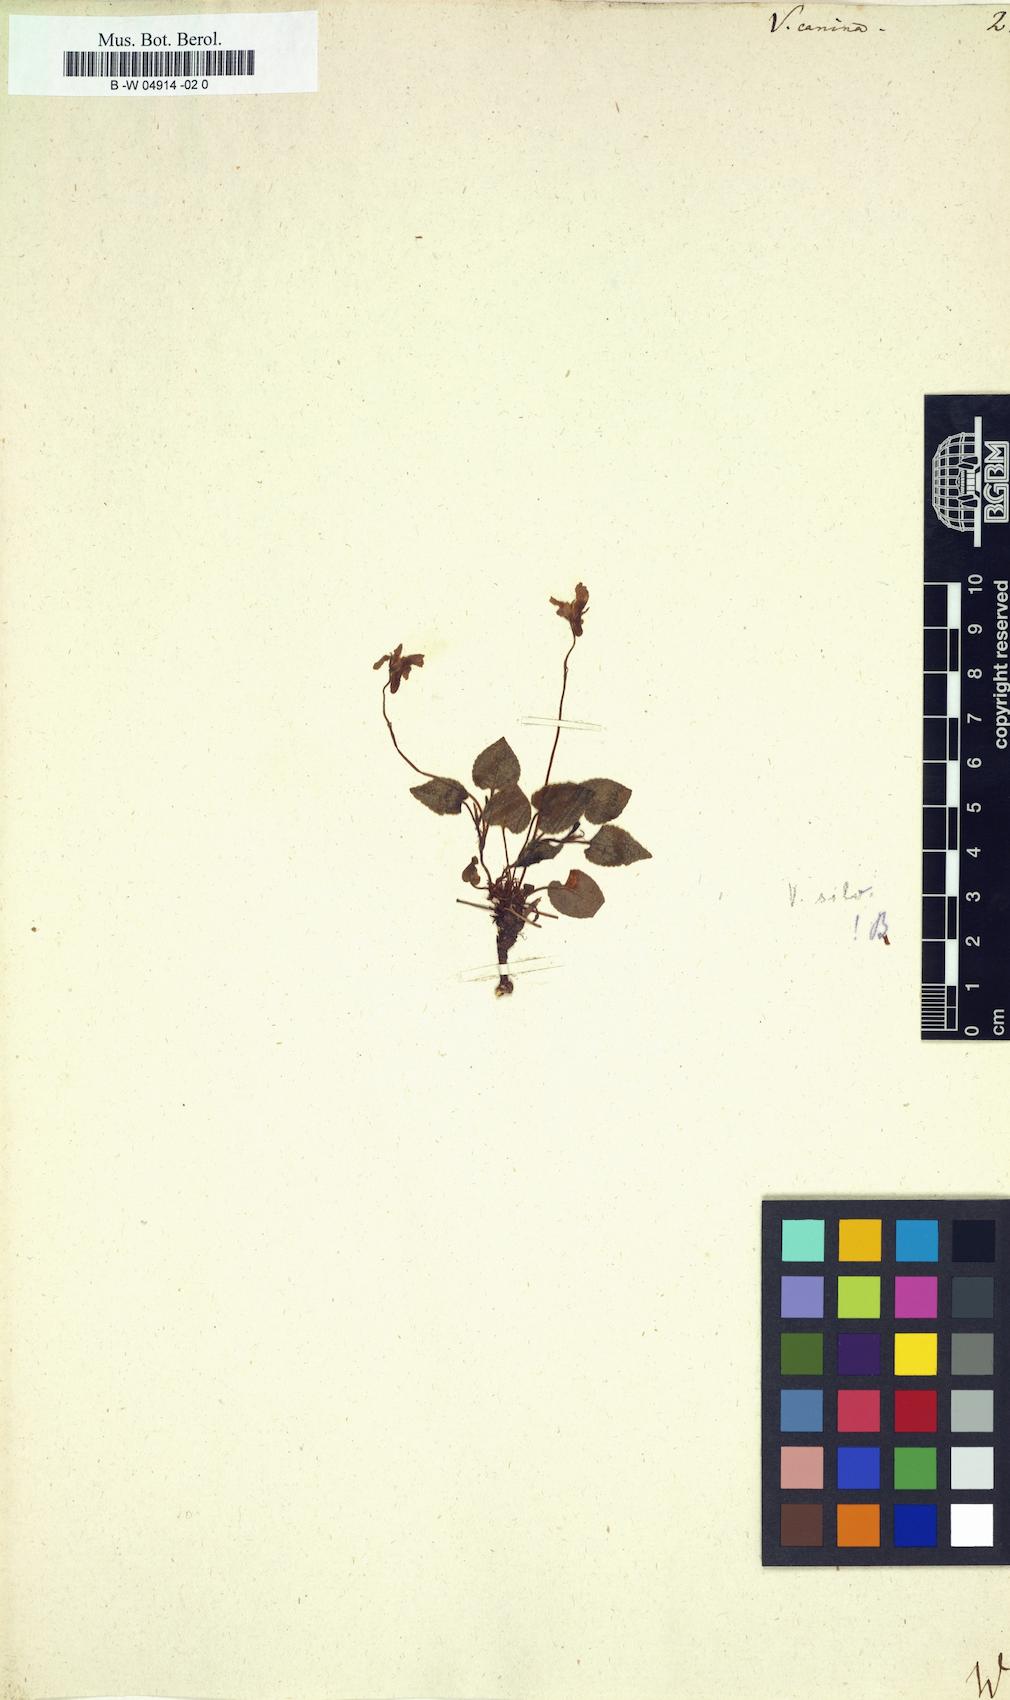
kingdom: Plantae
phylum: Tracheophyta
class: Magnoliopsida
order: Malpighiales
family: Violaceae
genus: Viola
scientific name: Viola canina
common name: Heath dog-violet
